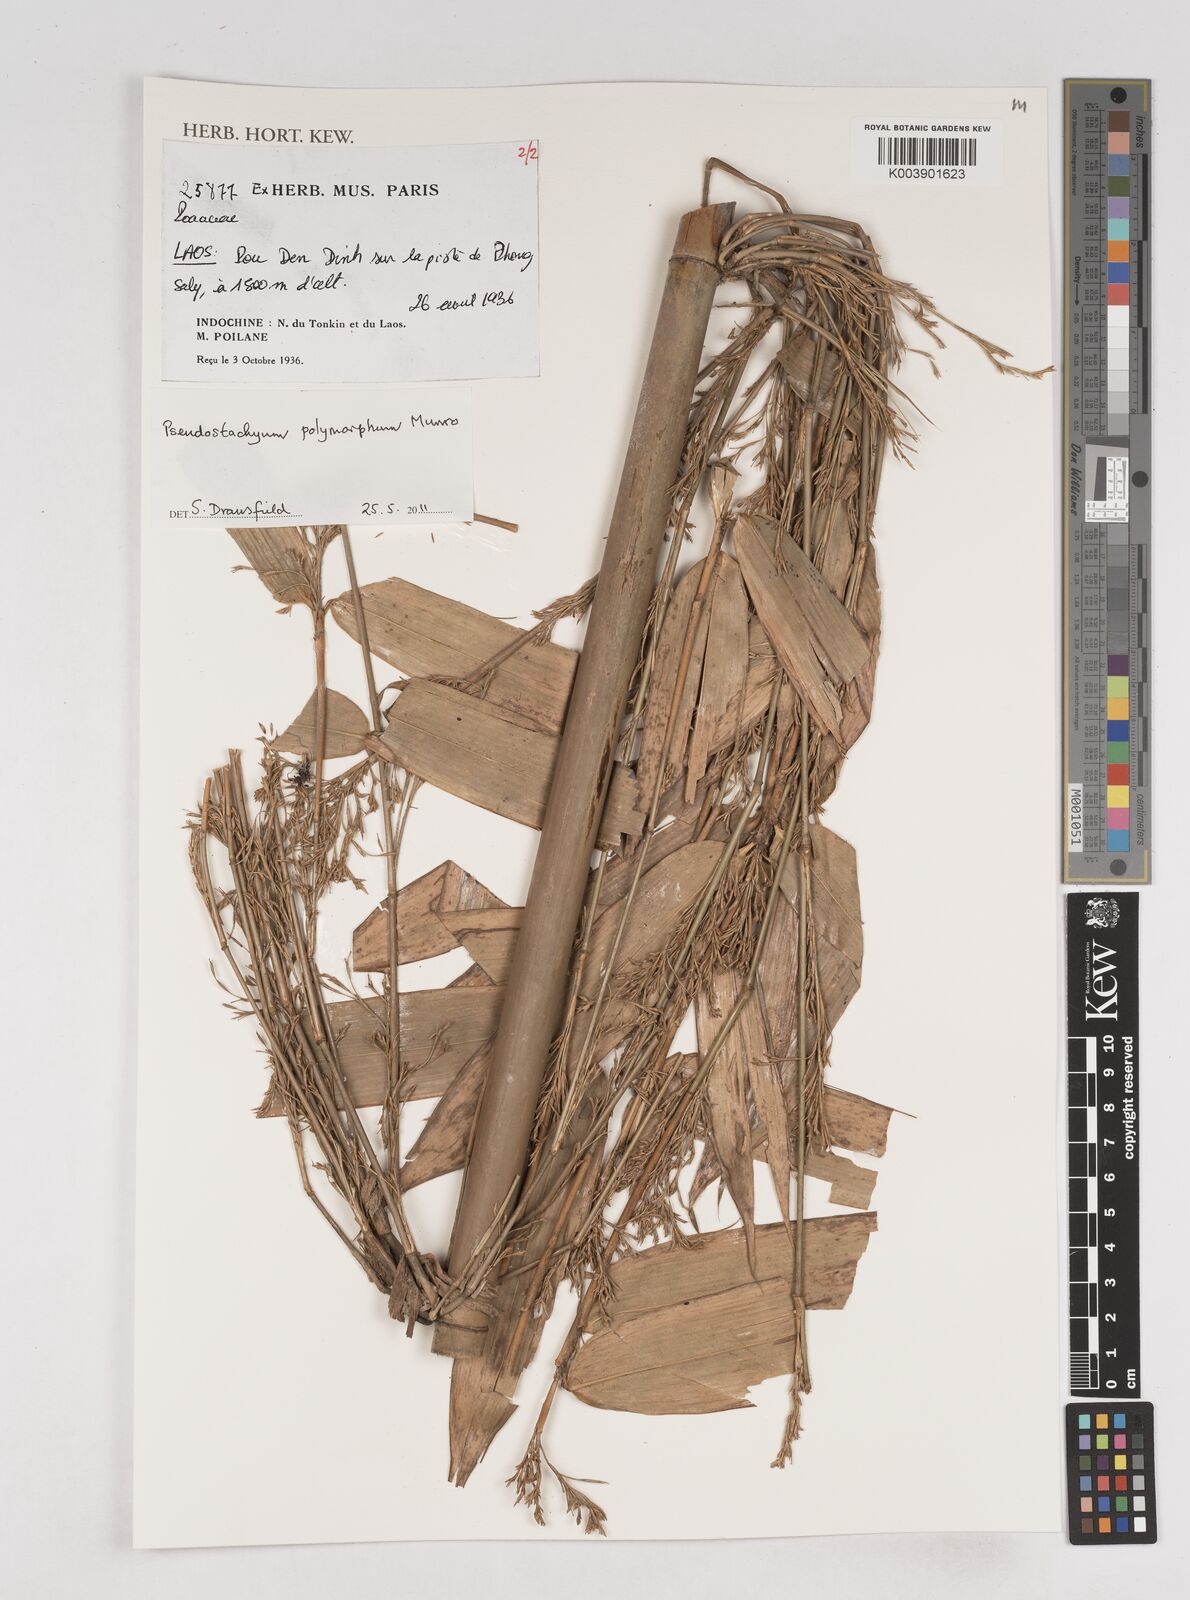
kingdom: Plantae
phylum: Tracheophyta
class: Liliopsida
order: Poales
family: Poaceae
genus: Pseudostachyum
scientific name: Pseudostachyum polymorphum
